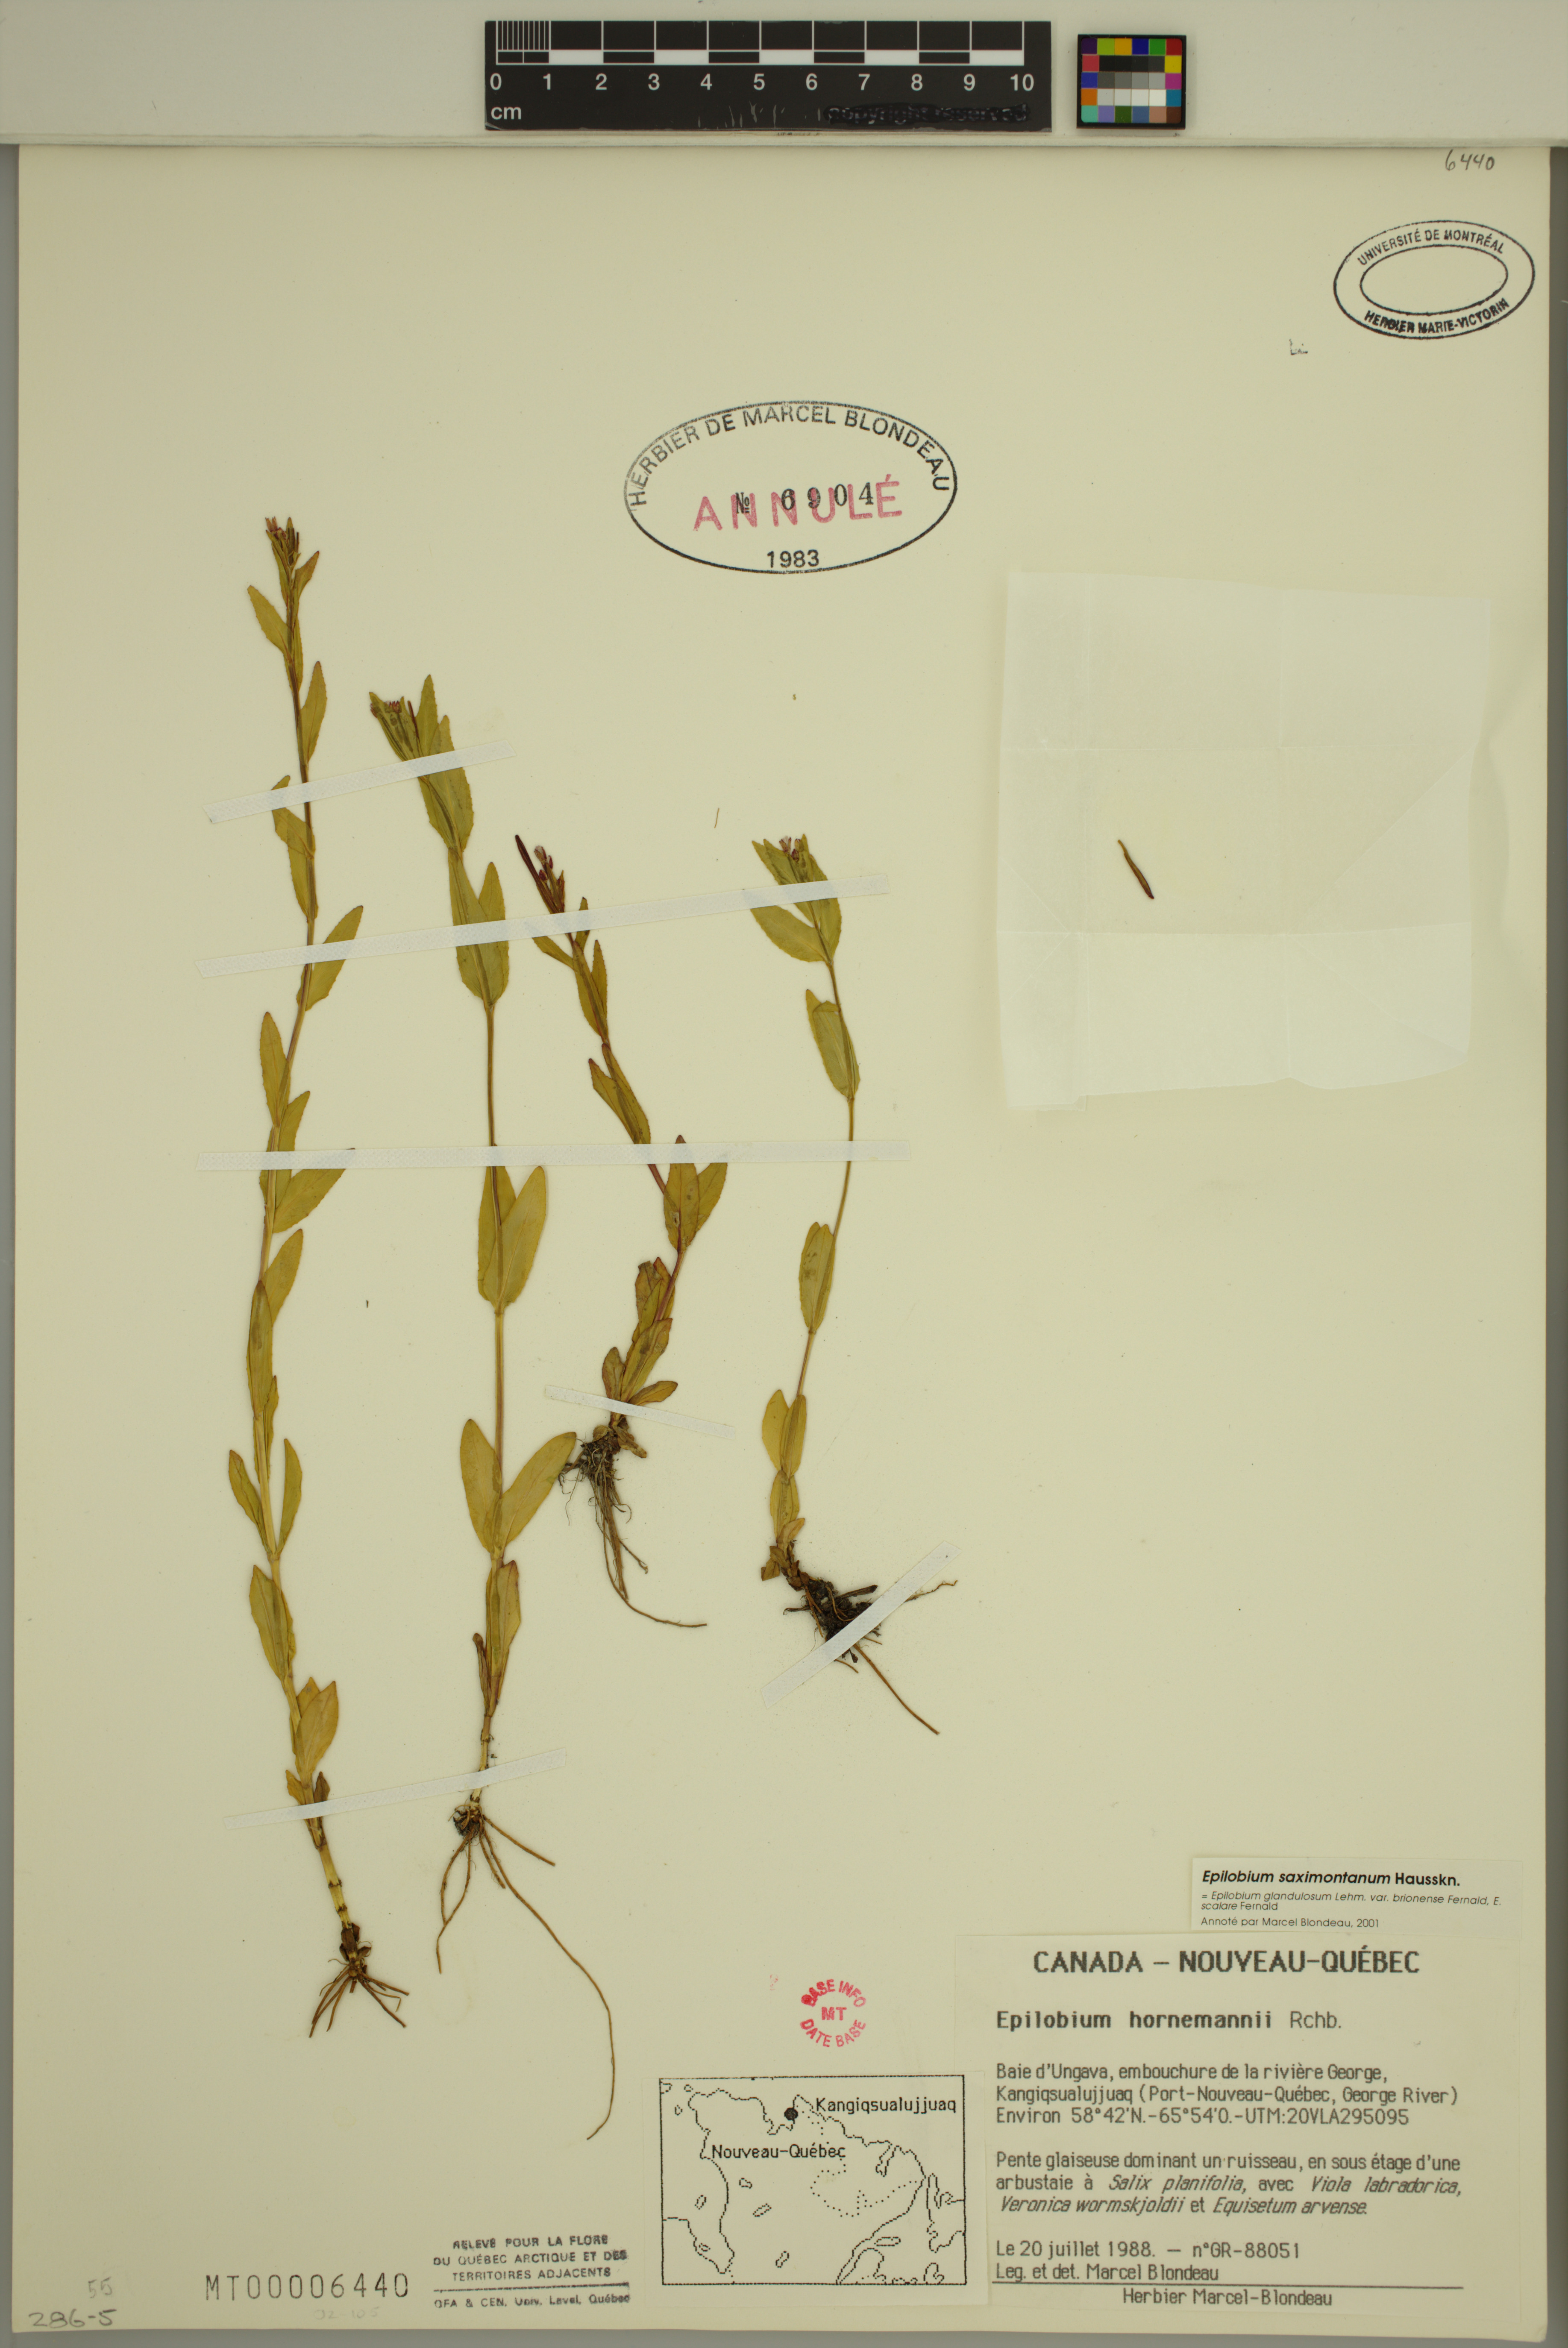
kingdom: Plantae
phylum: Tracheophyta
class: Magnoliopsida
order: Myrtales
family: Onagraceae
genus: Epilobium
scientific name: Epilobium saximontanum
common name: Rocky mountain willowherb
